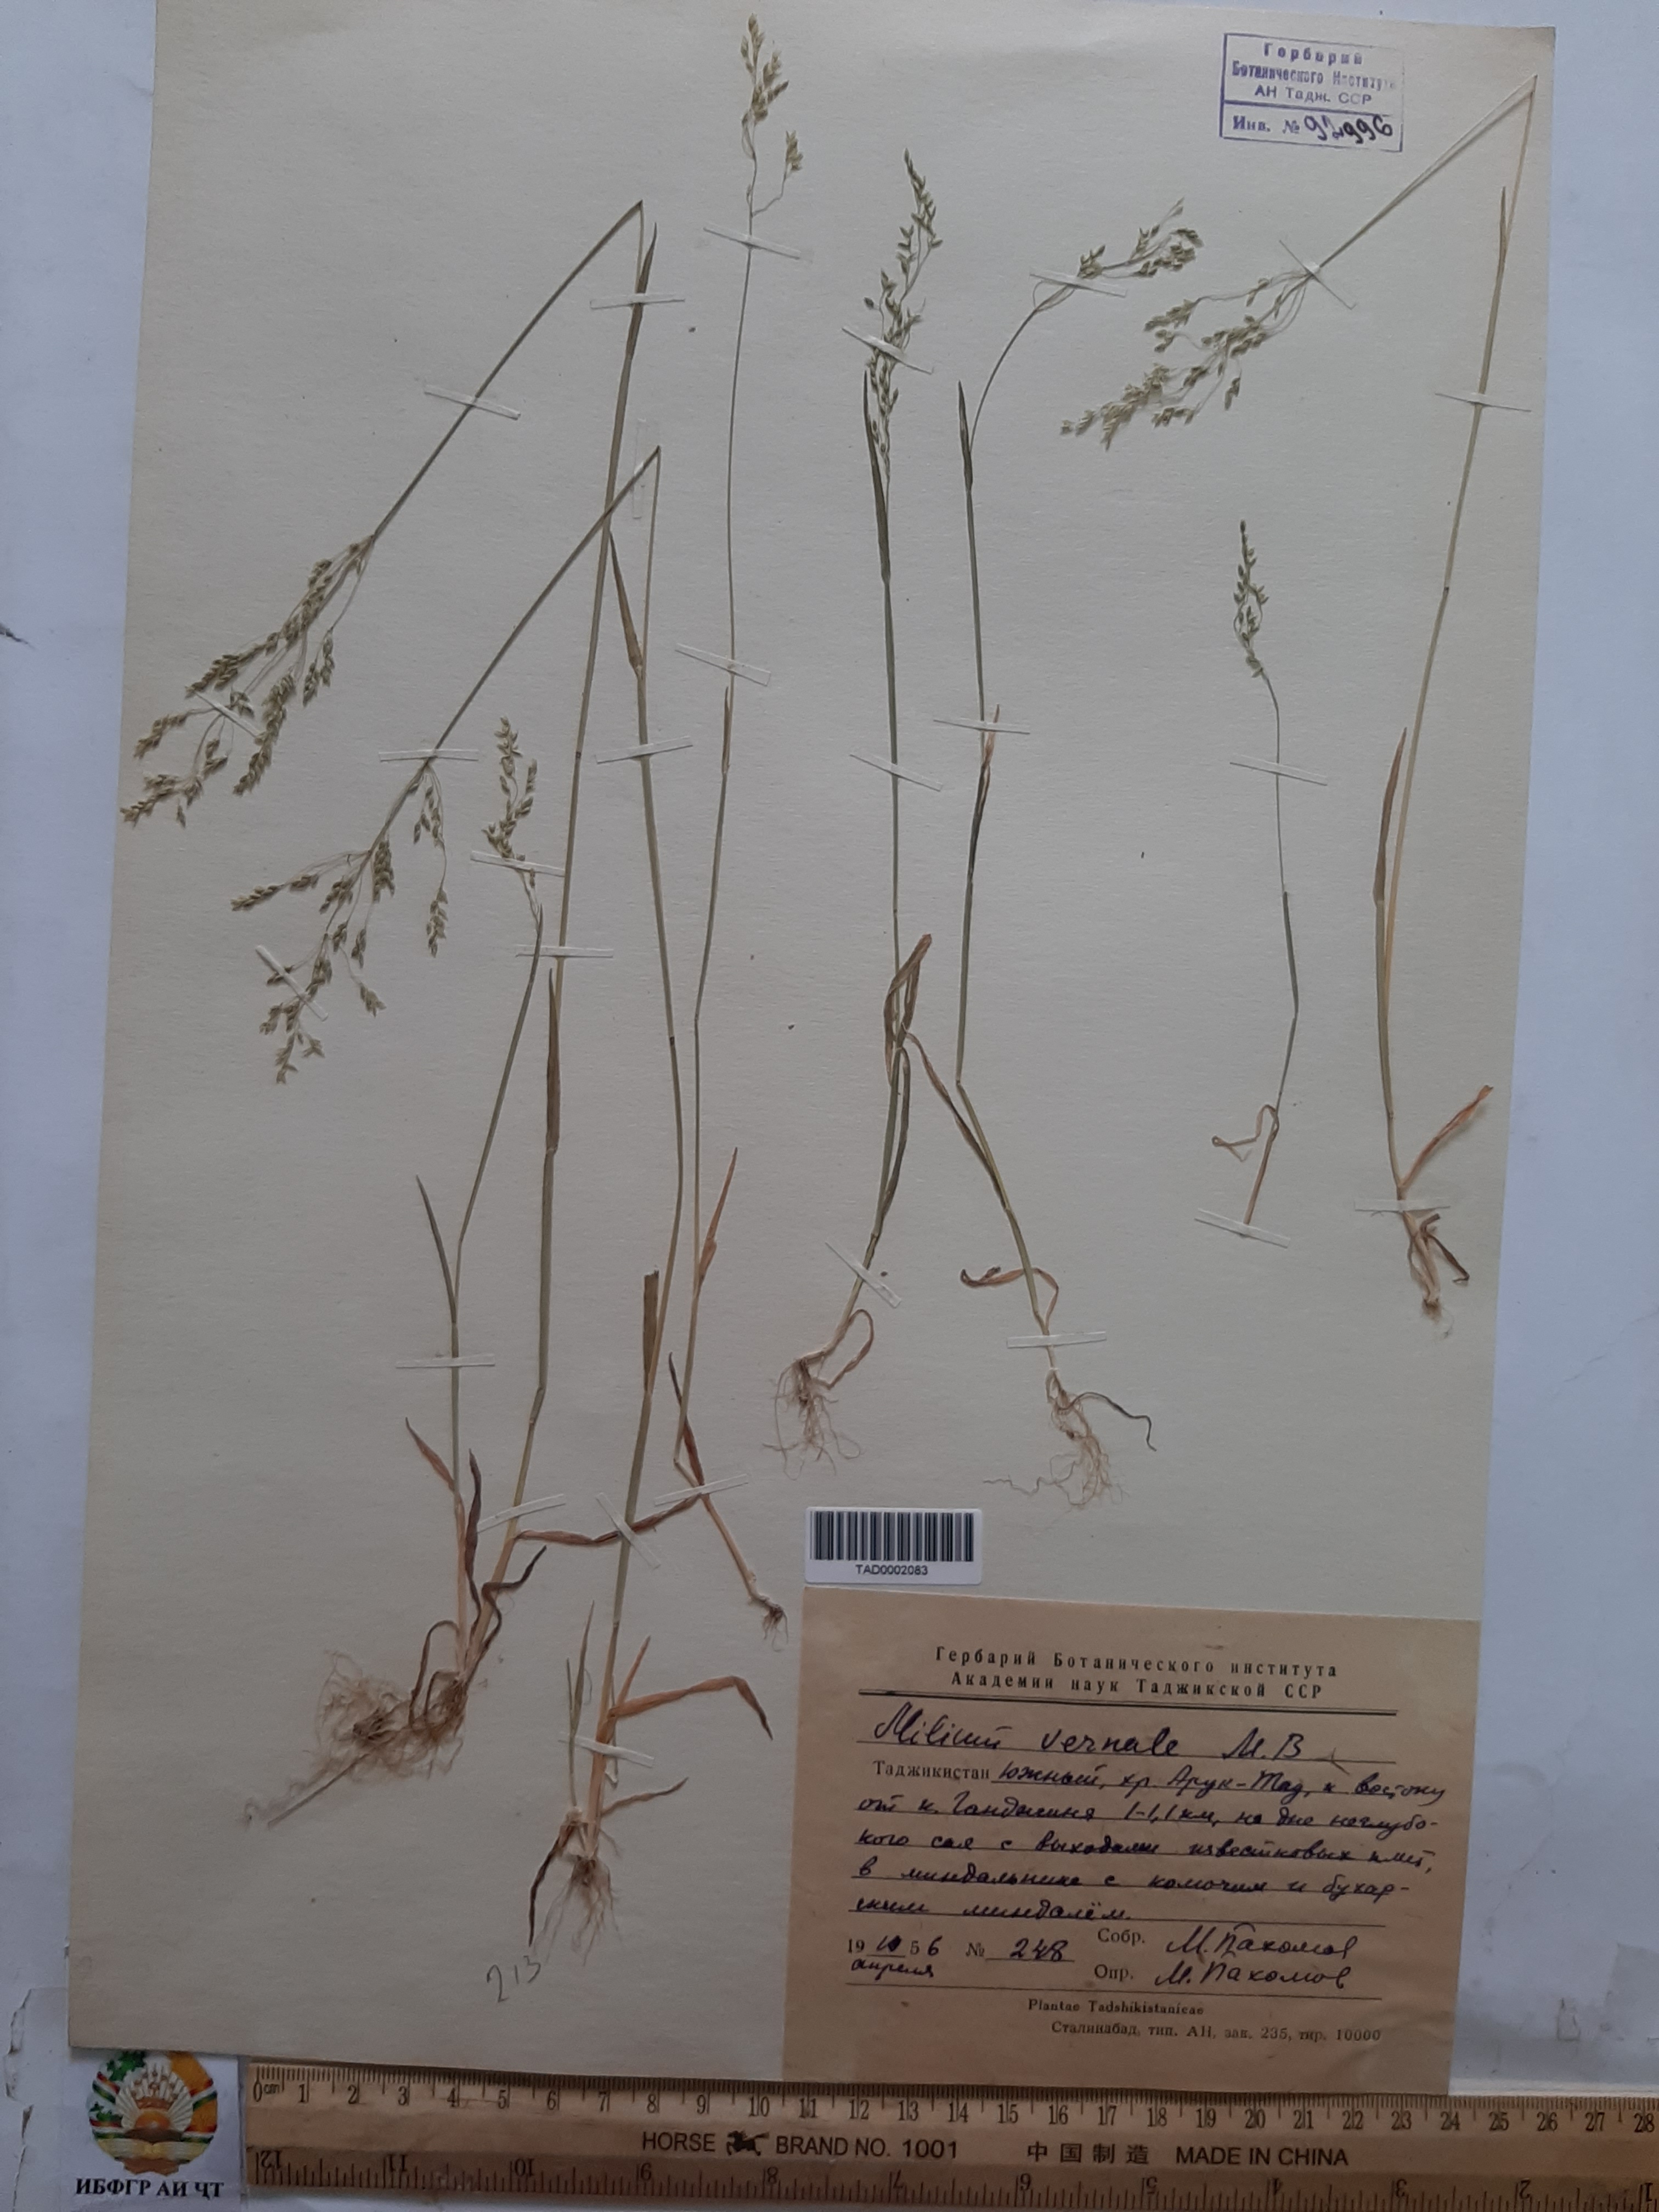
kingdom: Plantae
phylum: Tracheophyta
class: Liliopsida
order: Poales
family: Poaceae
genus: Milium
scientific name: Milium vernale
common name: Early millet
